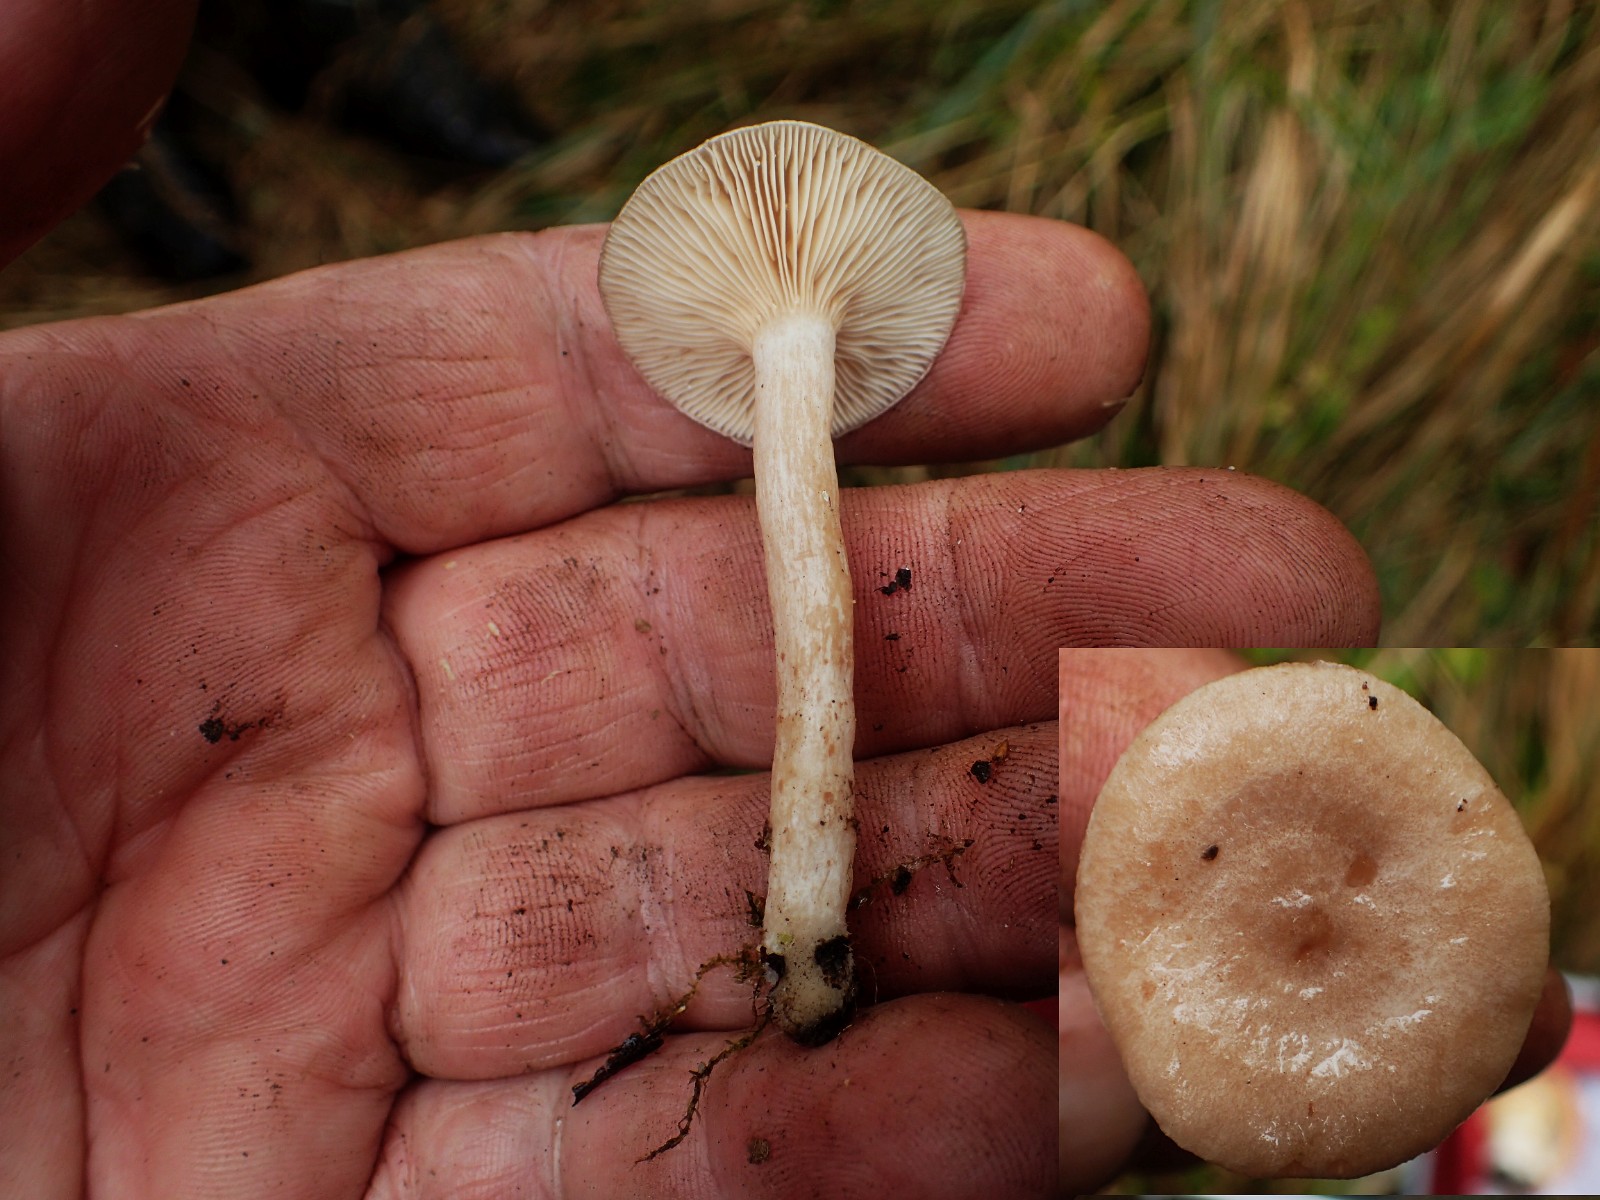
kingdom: Fungi
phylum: Basidiomycota
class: Agaricomycetes
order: Russulales
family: Russulaceae
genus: Lactarius
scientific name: Lactarius glyciosmus
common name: kokos-mælkehat
